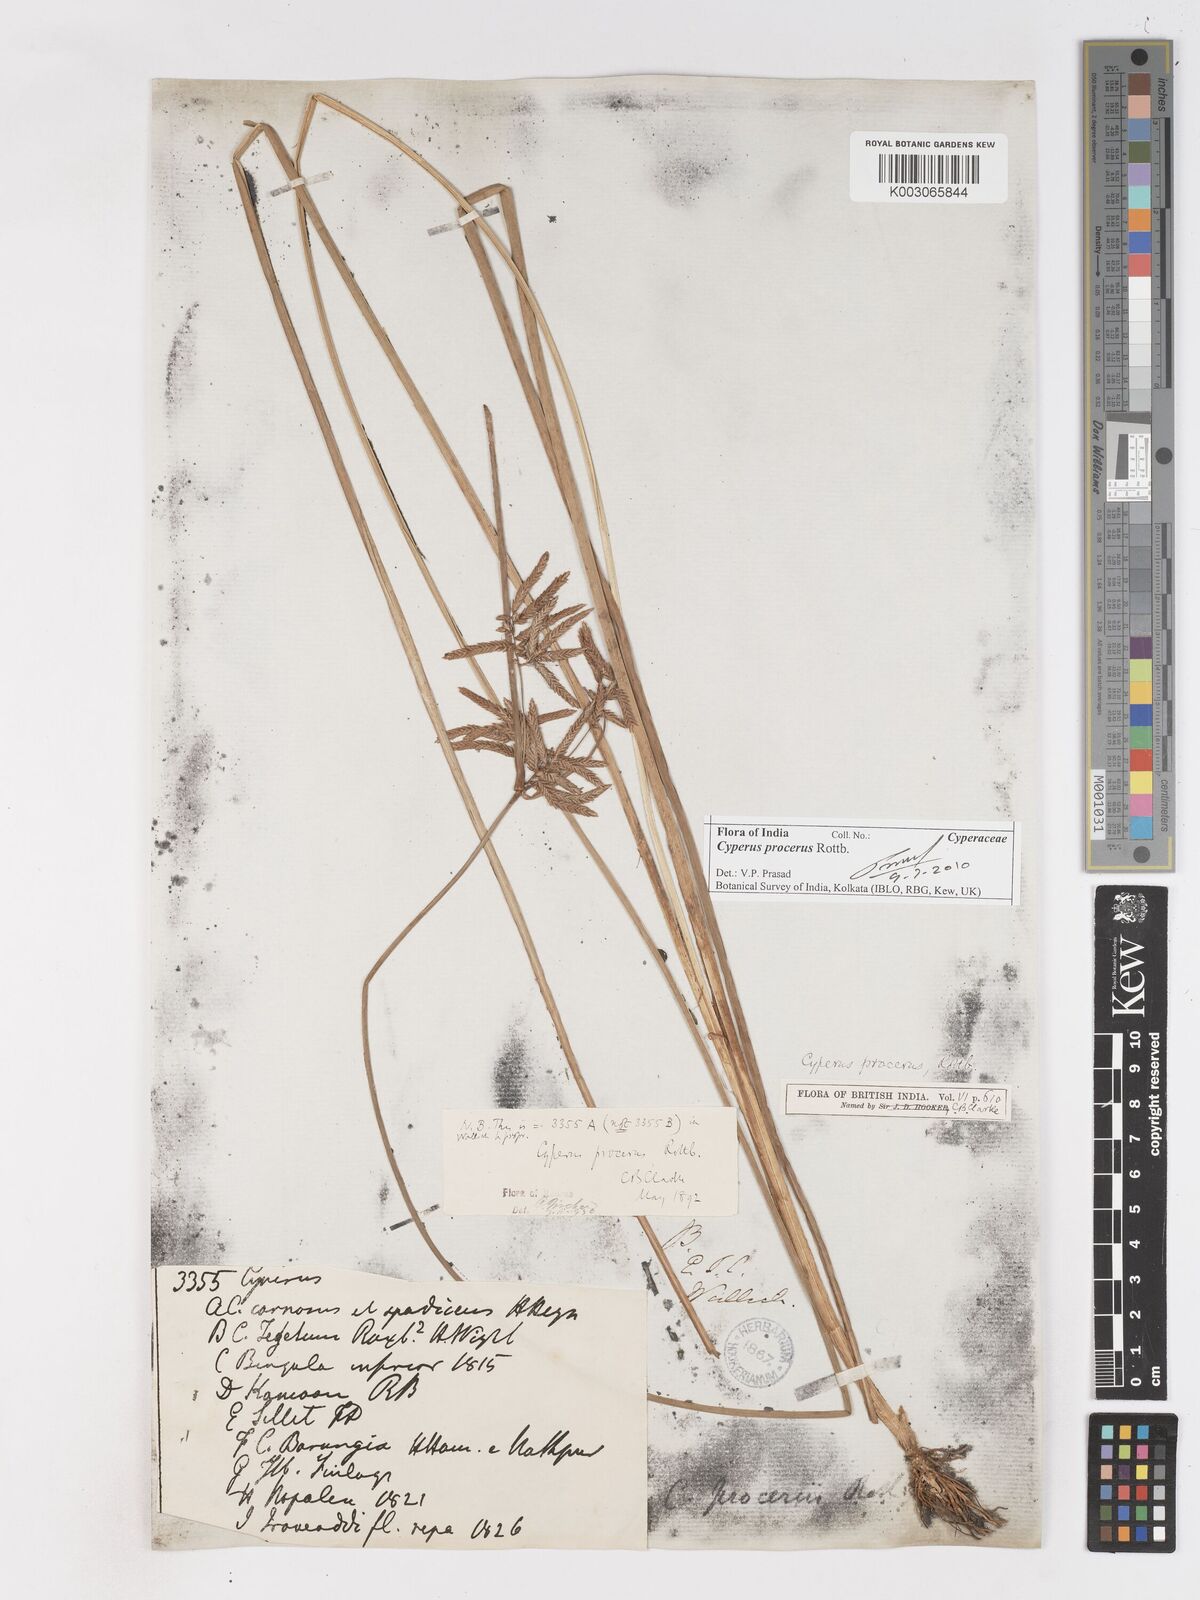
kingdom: Plantae
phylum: Tracheophyta
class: Liliopsida
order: Poales
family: Cyperaceae
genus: Cyperus
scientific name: Cyperus procerus
